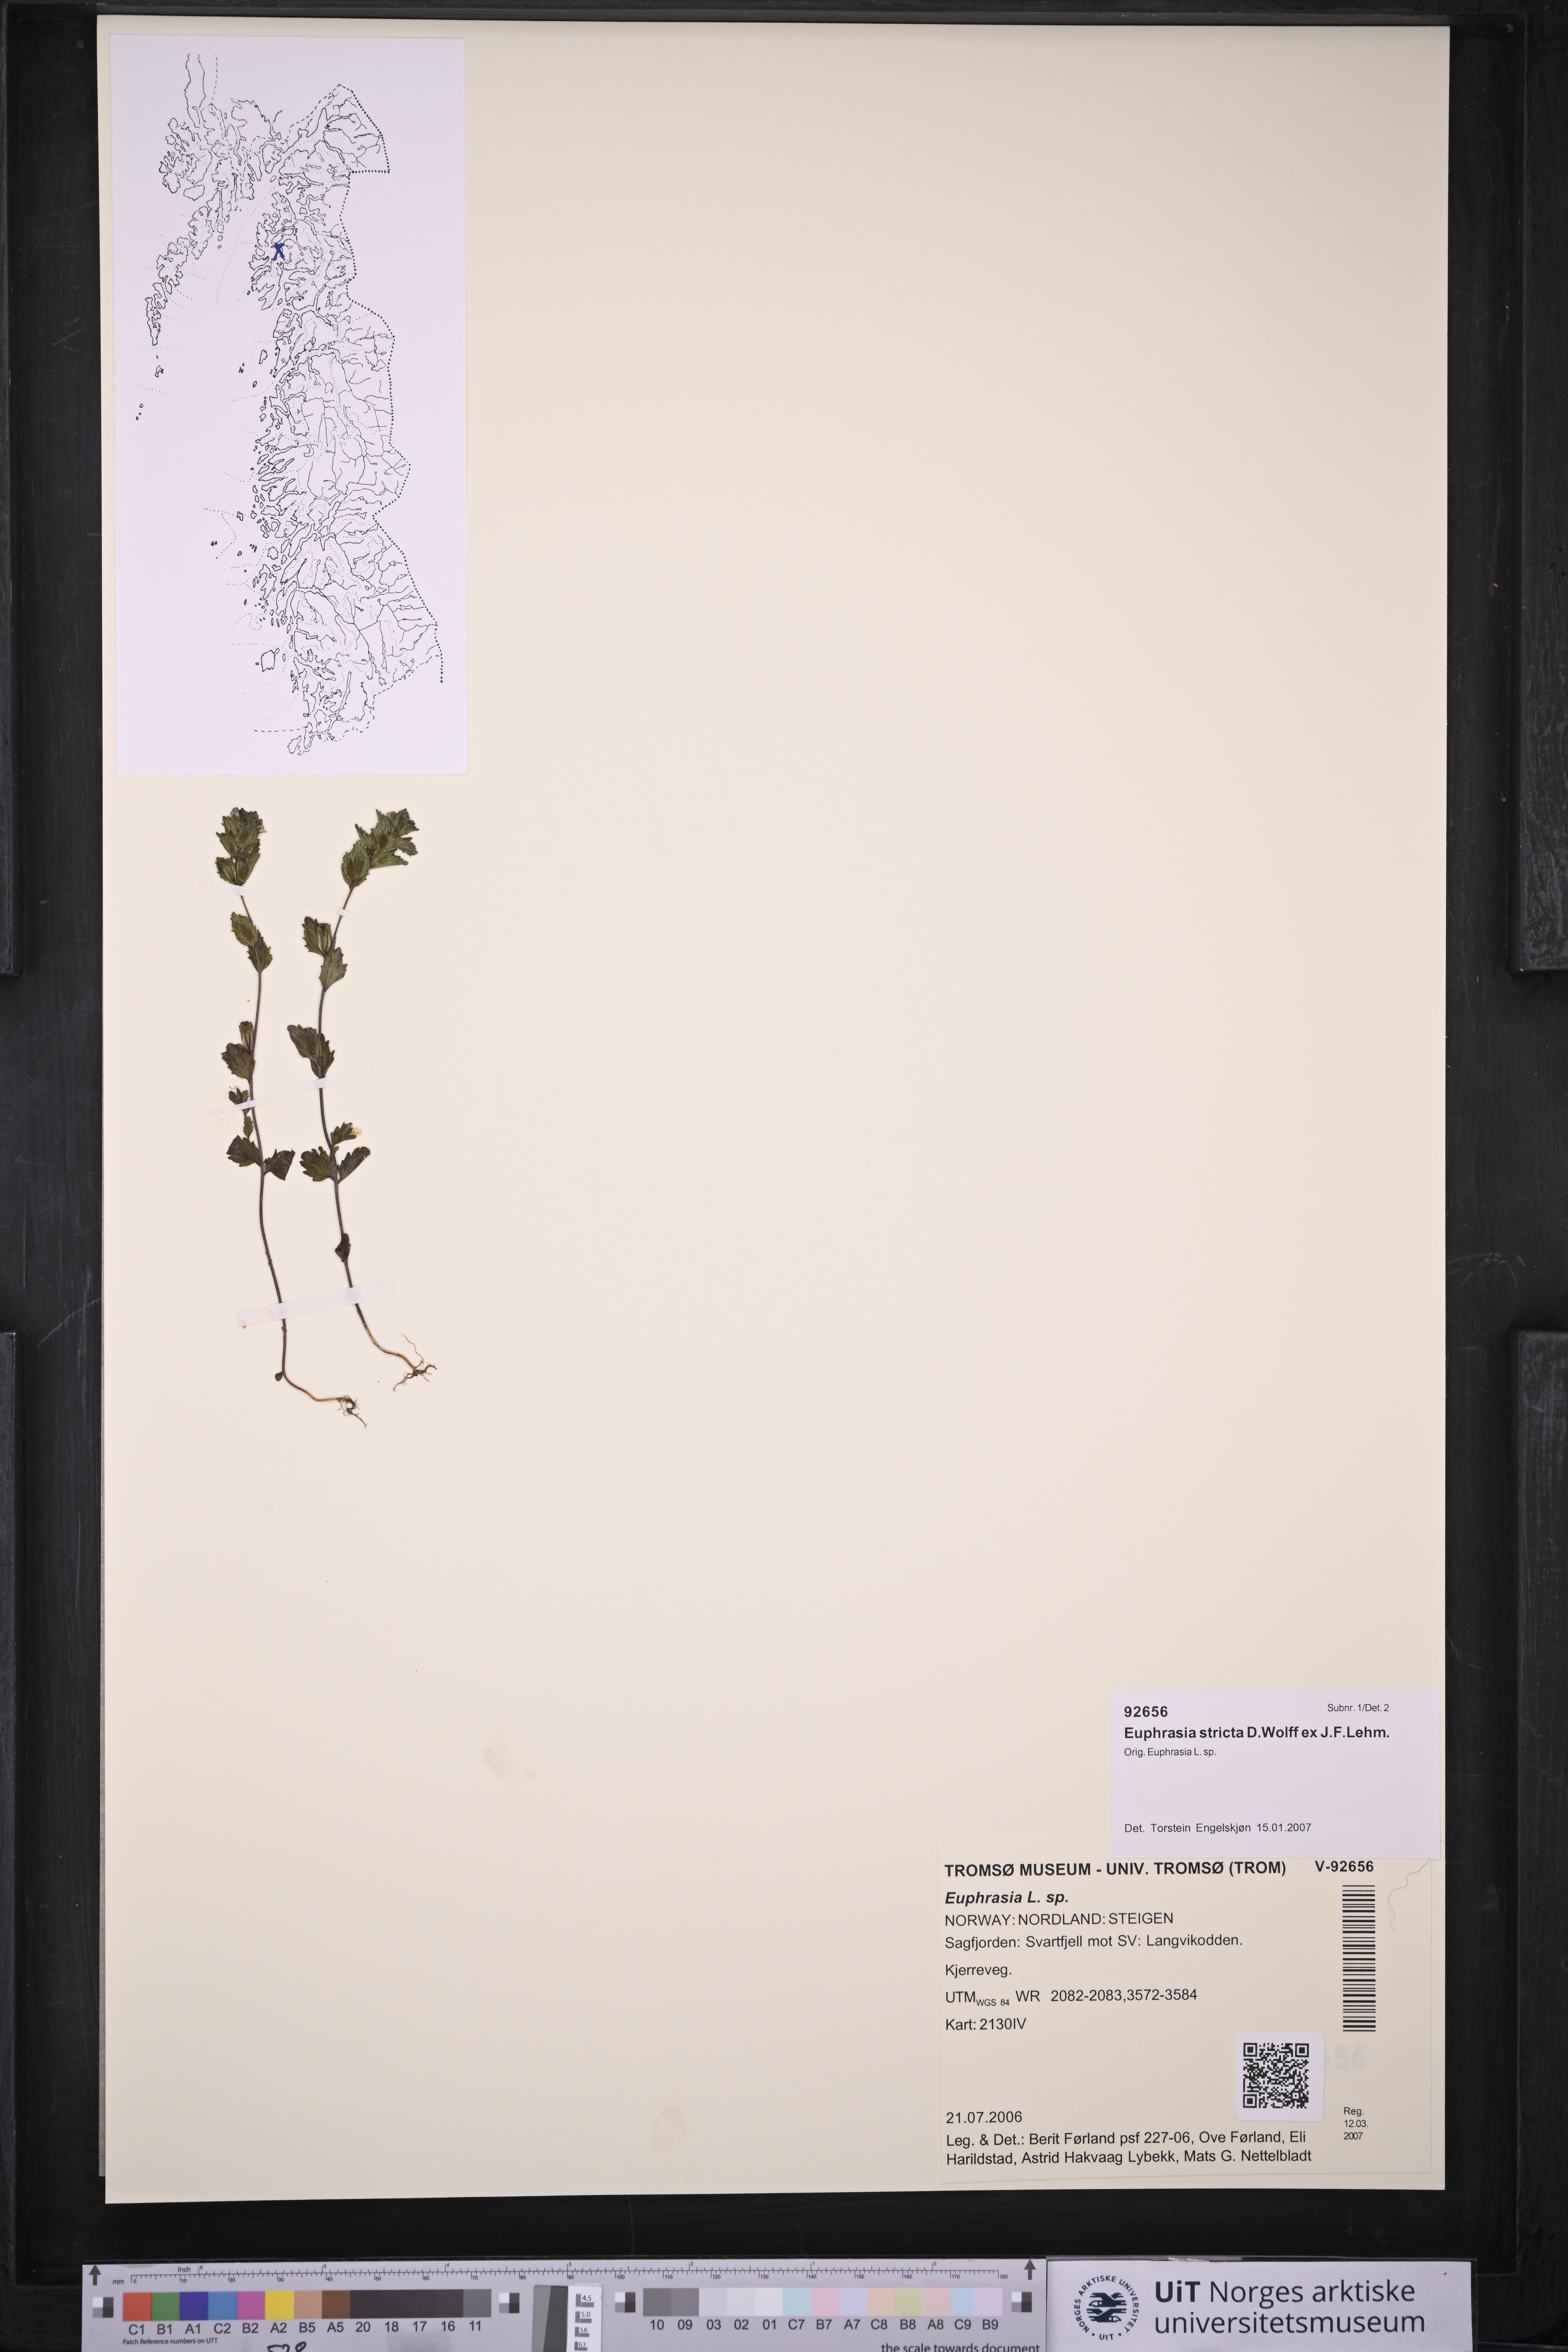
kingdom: Plantae
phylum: Tracheophyta
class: Magnoliopsida
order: Lamiales
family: Orobanchaceae
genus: Euphrasia
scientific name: Euphrasia stricta
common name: Drug eyebright
